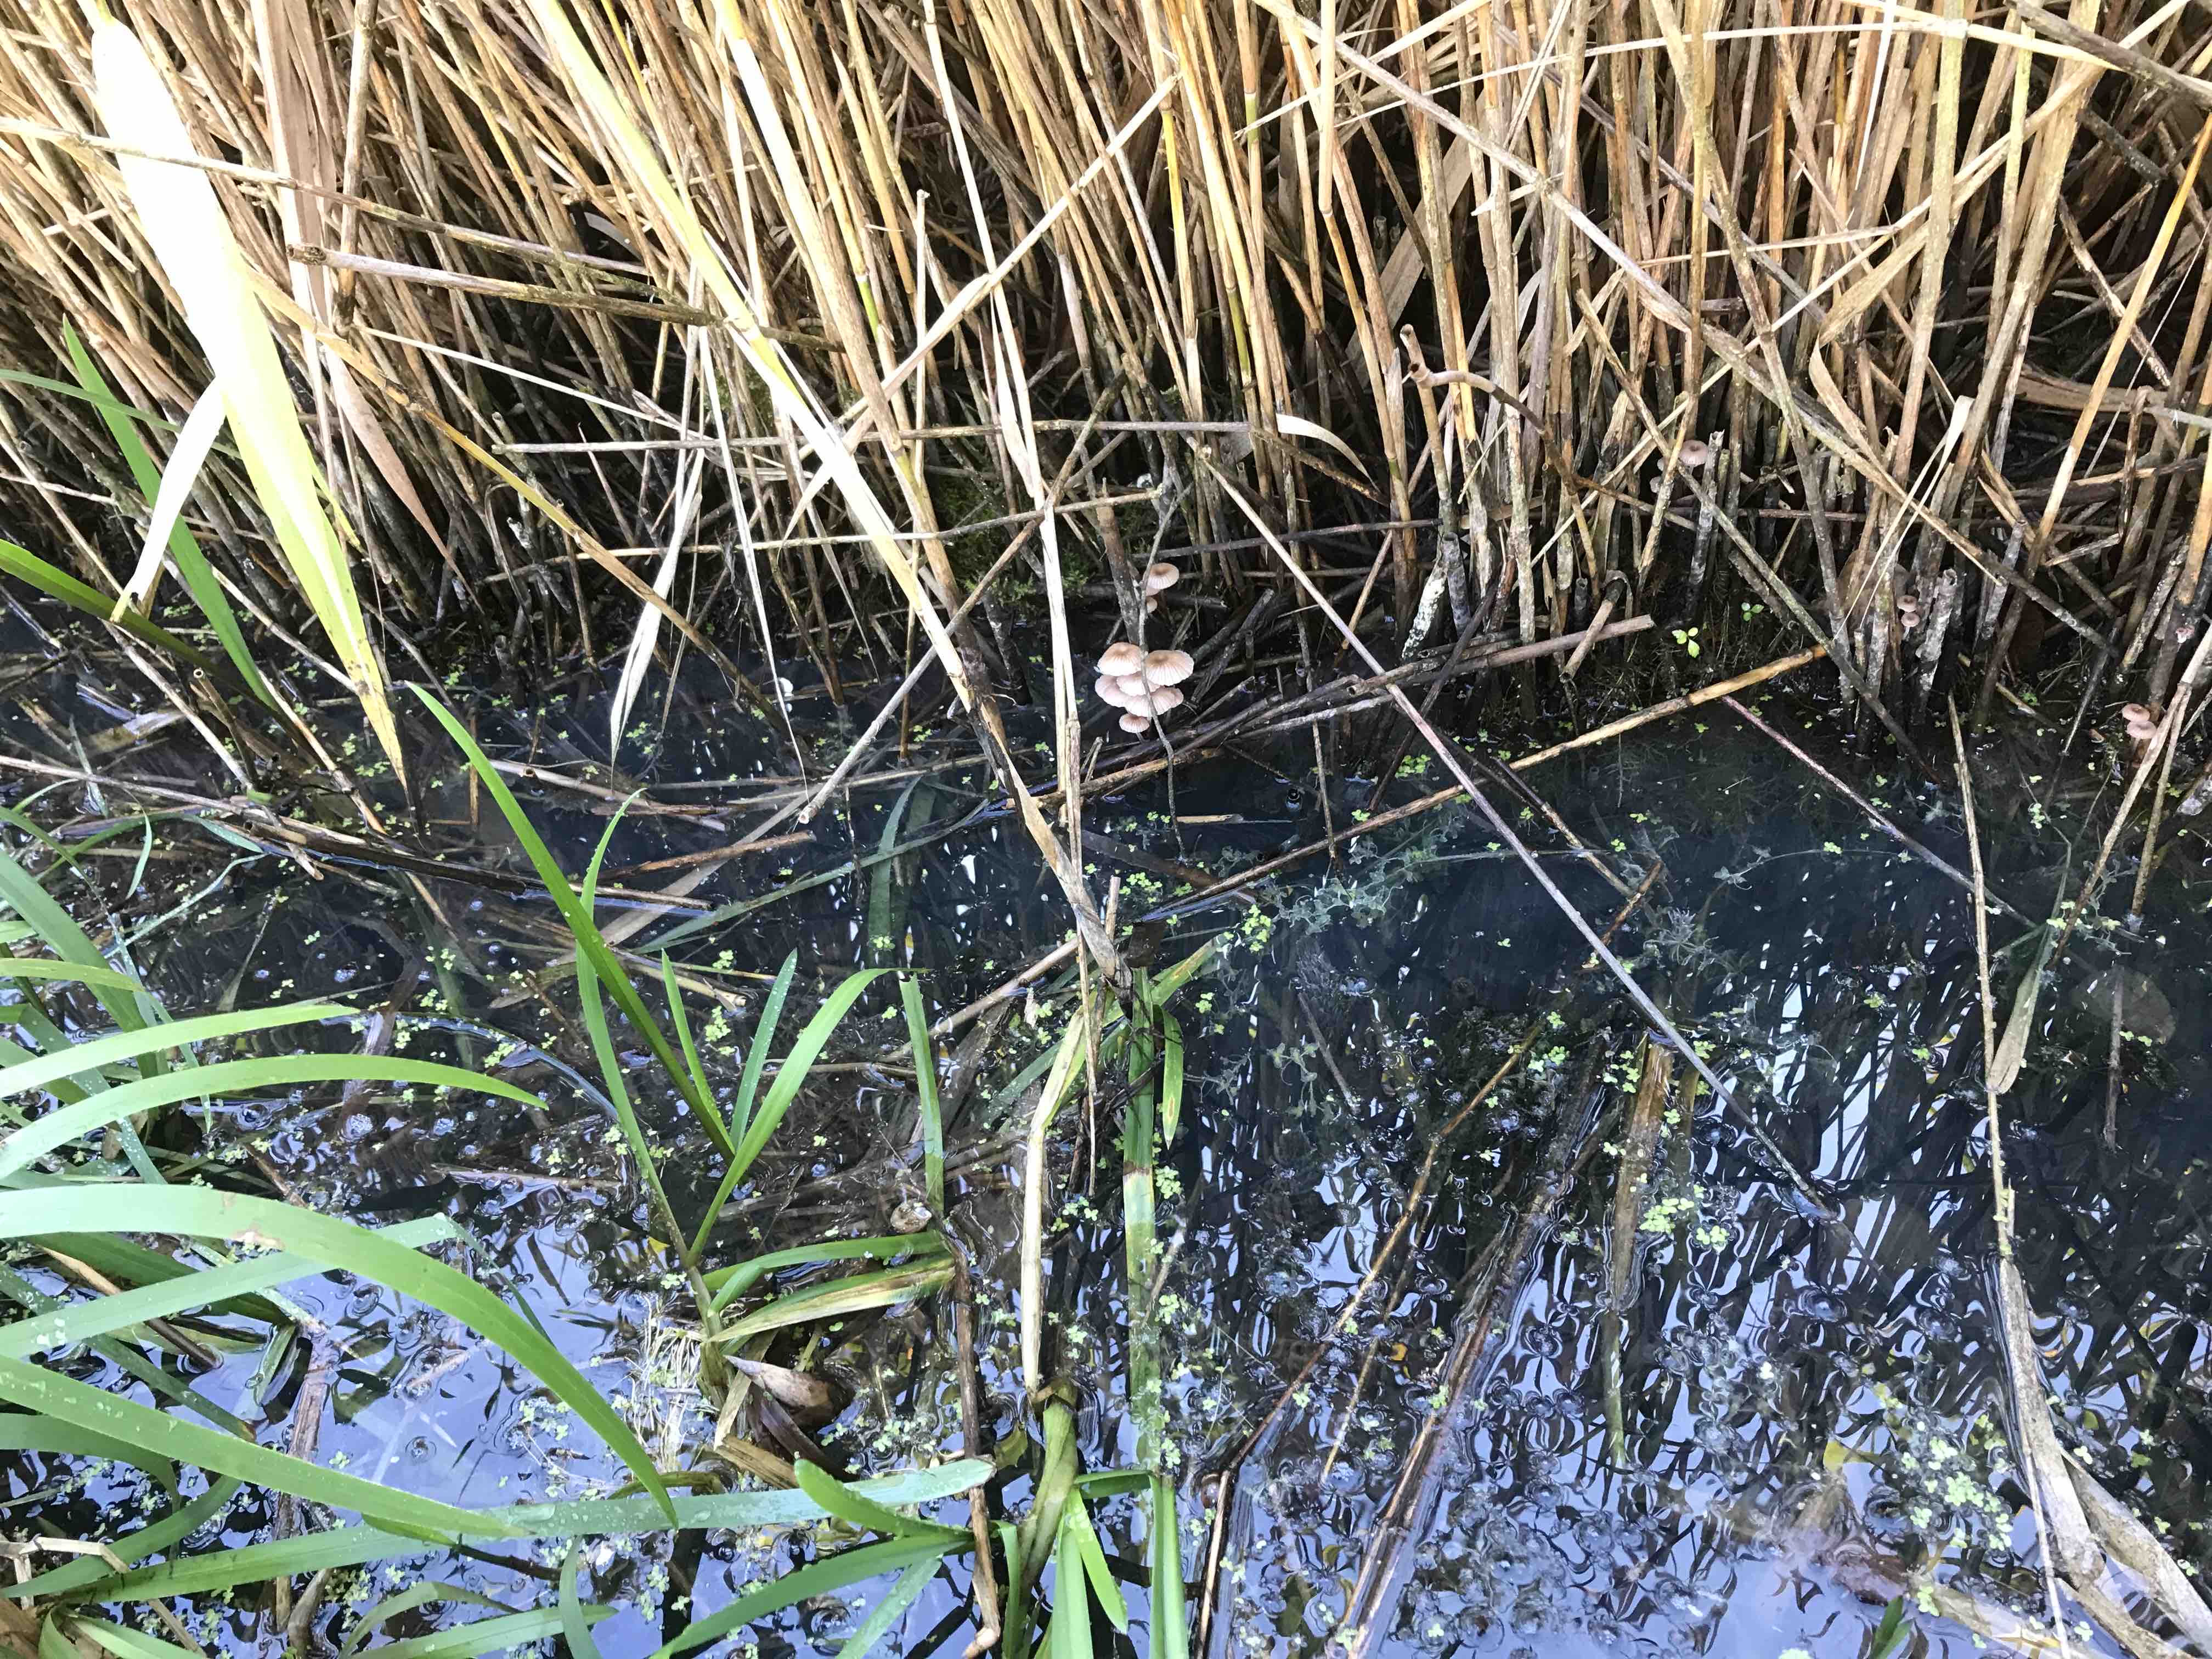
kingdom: Fungi
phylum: Basidiomycota
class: Agaricomycetes
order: Agaricales
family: Mycenaceae
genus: Mycena
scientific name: Mycena belliae
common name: tagrørs-huesvamp
